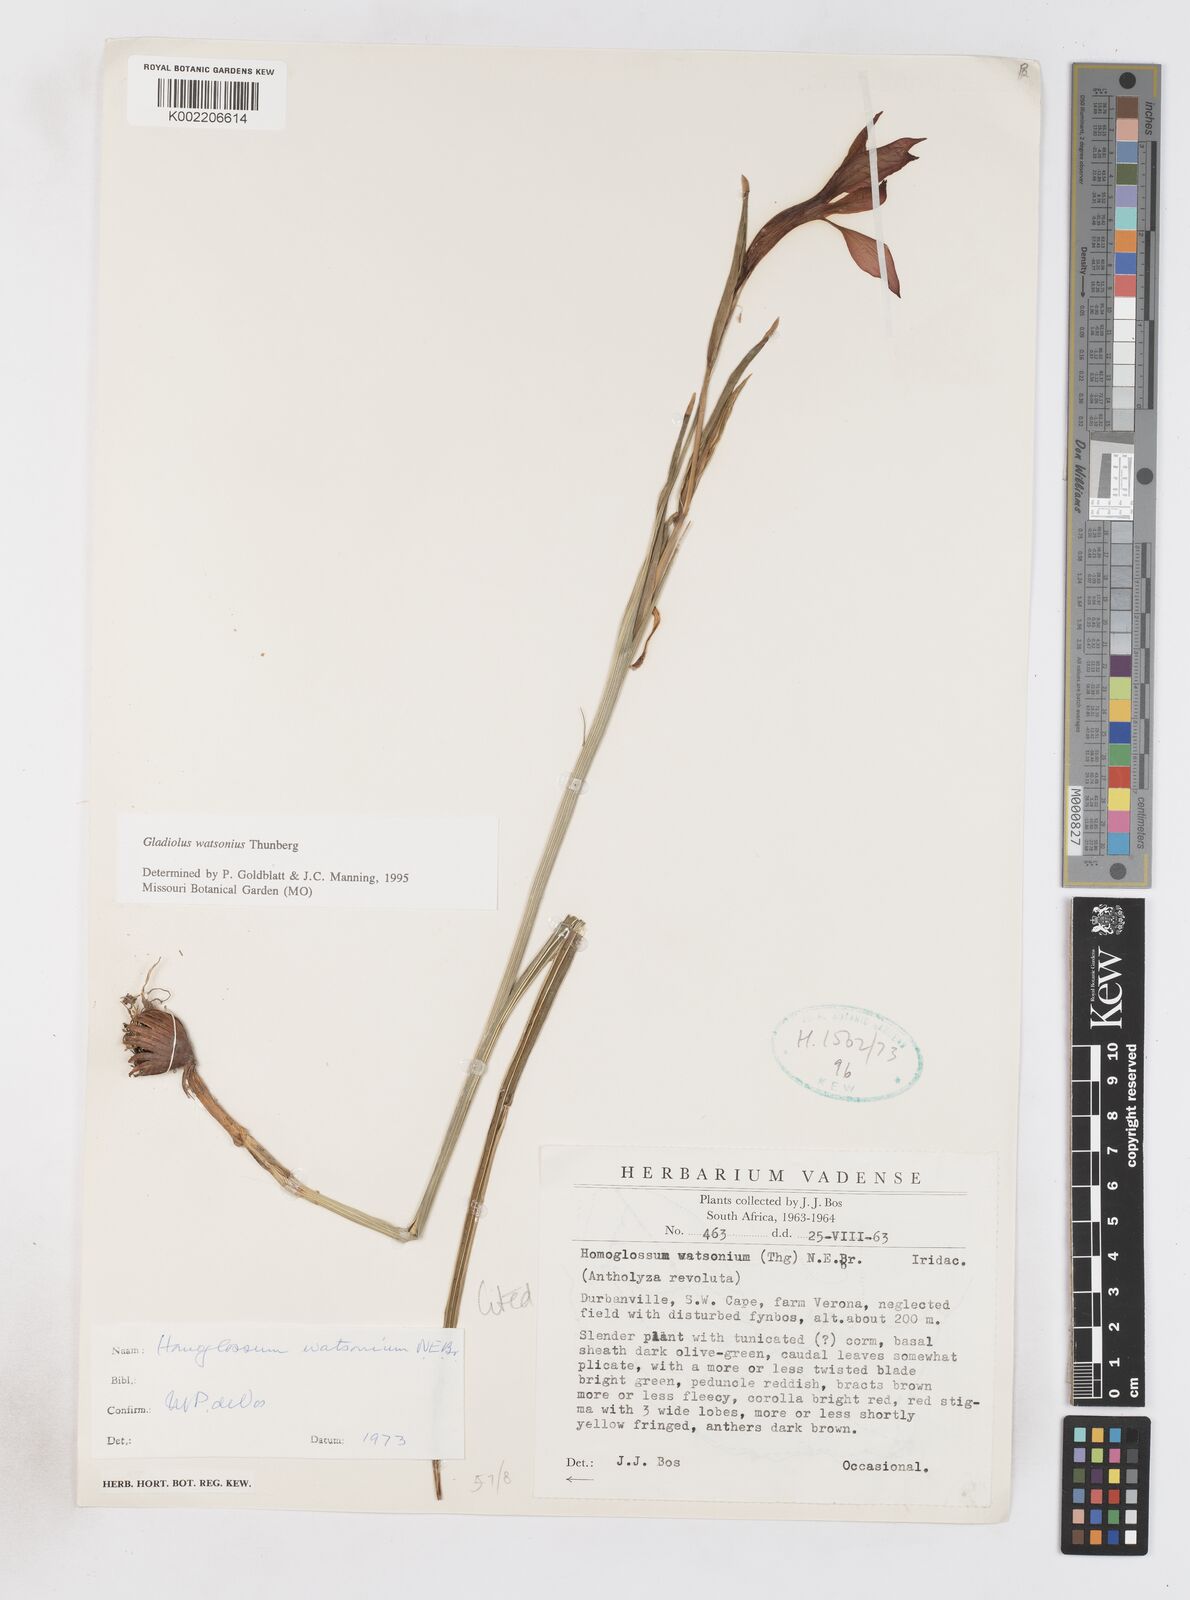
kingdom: Plantae
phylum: Tracheophyta
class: Liliopsida
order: Asparagales
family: Iridaceae
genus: Gladiolus
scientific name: Gladiolus watsonius
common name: Red afrikaner
